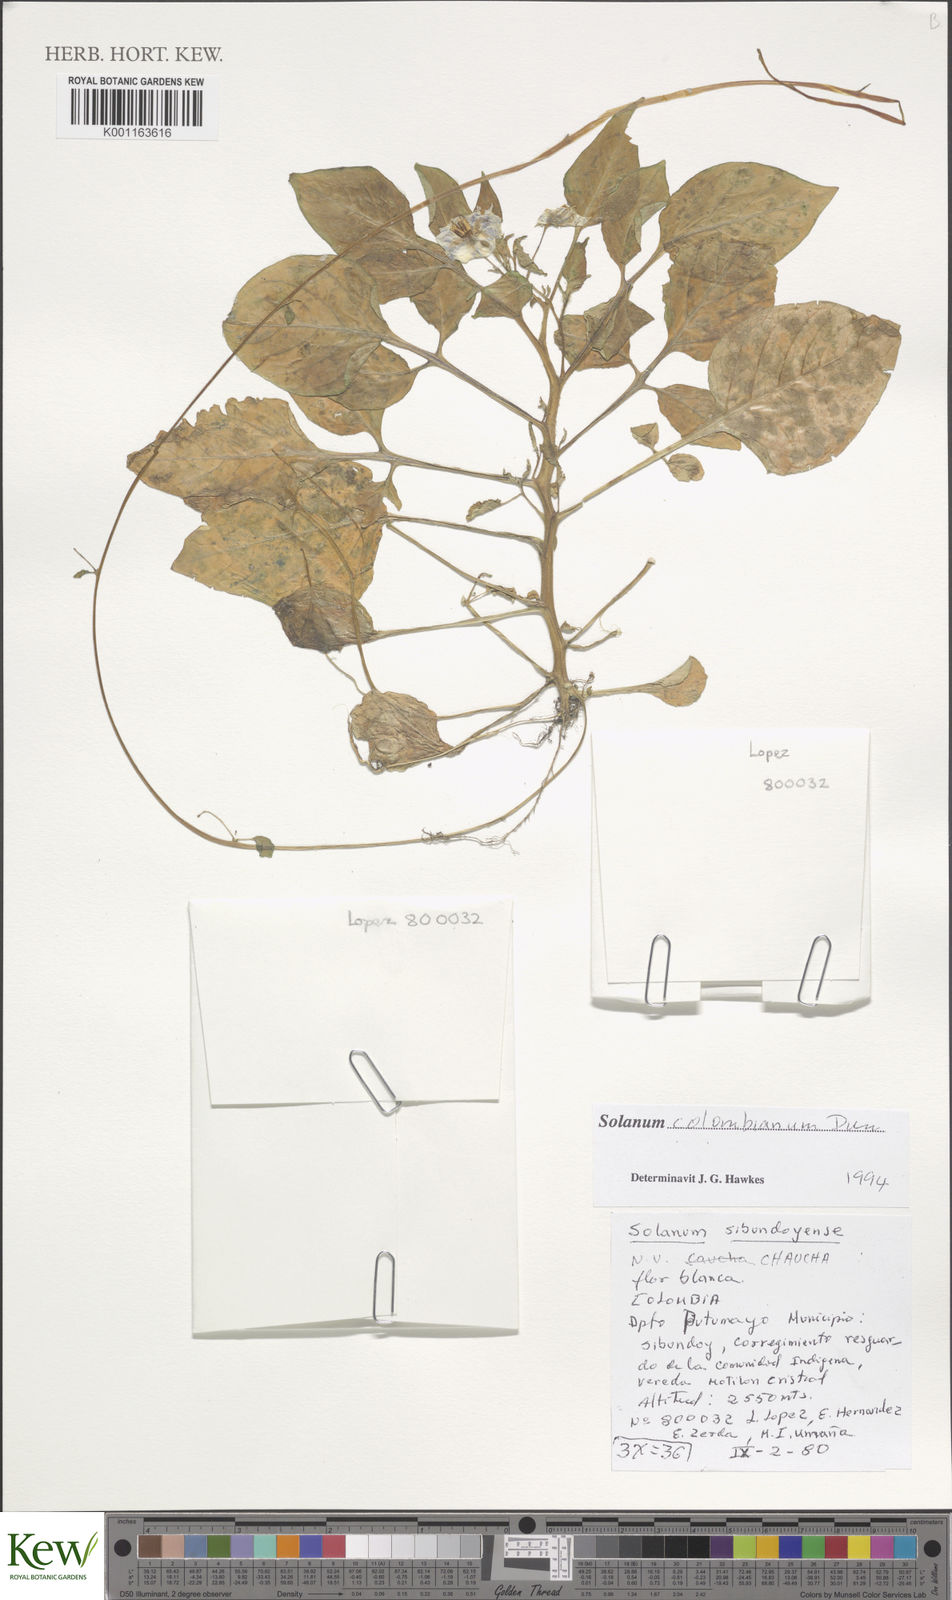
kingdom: Plantae
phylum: Tracheophyta
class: Magnoliopsida
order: Solanales
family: Solanaceae
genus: Solanum
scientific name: Solanum colombianum
